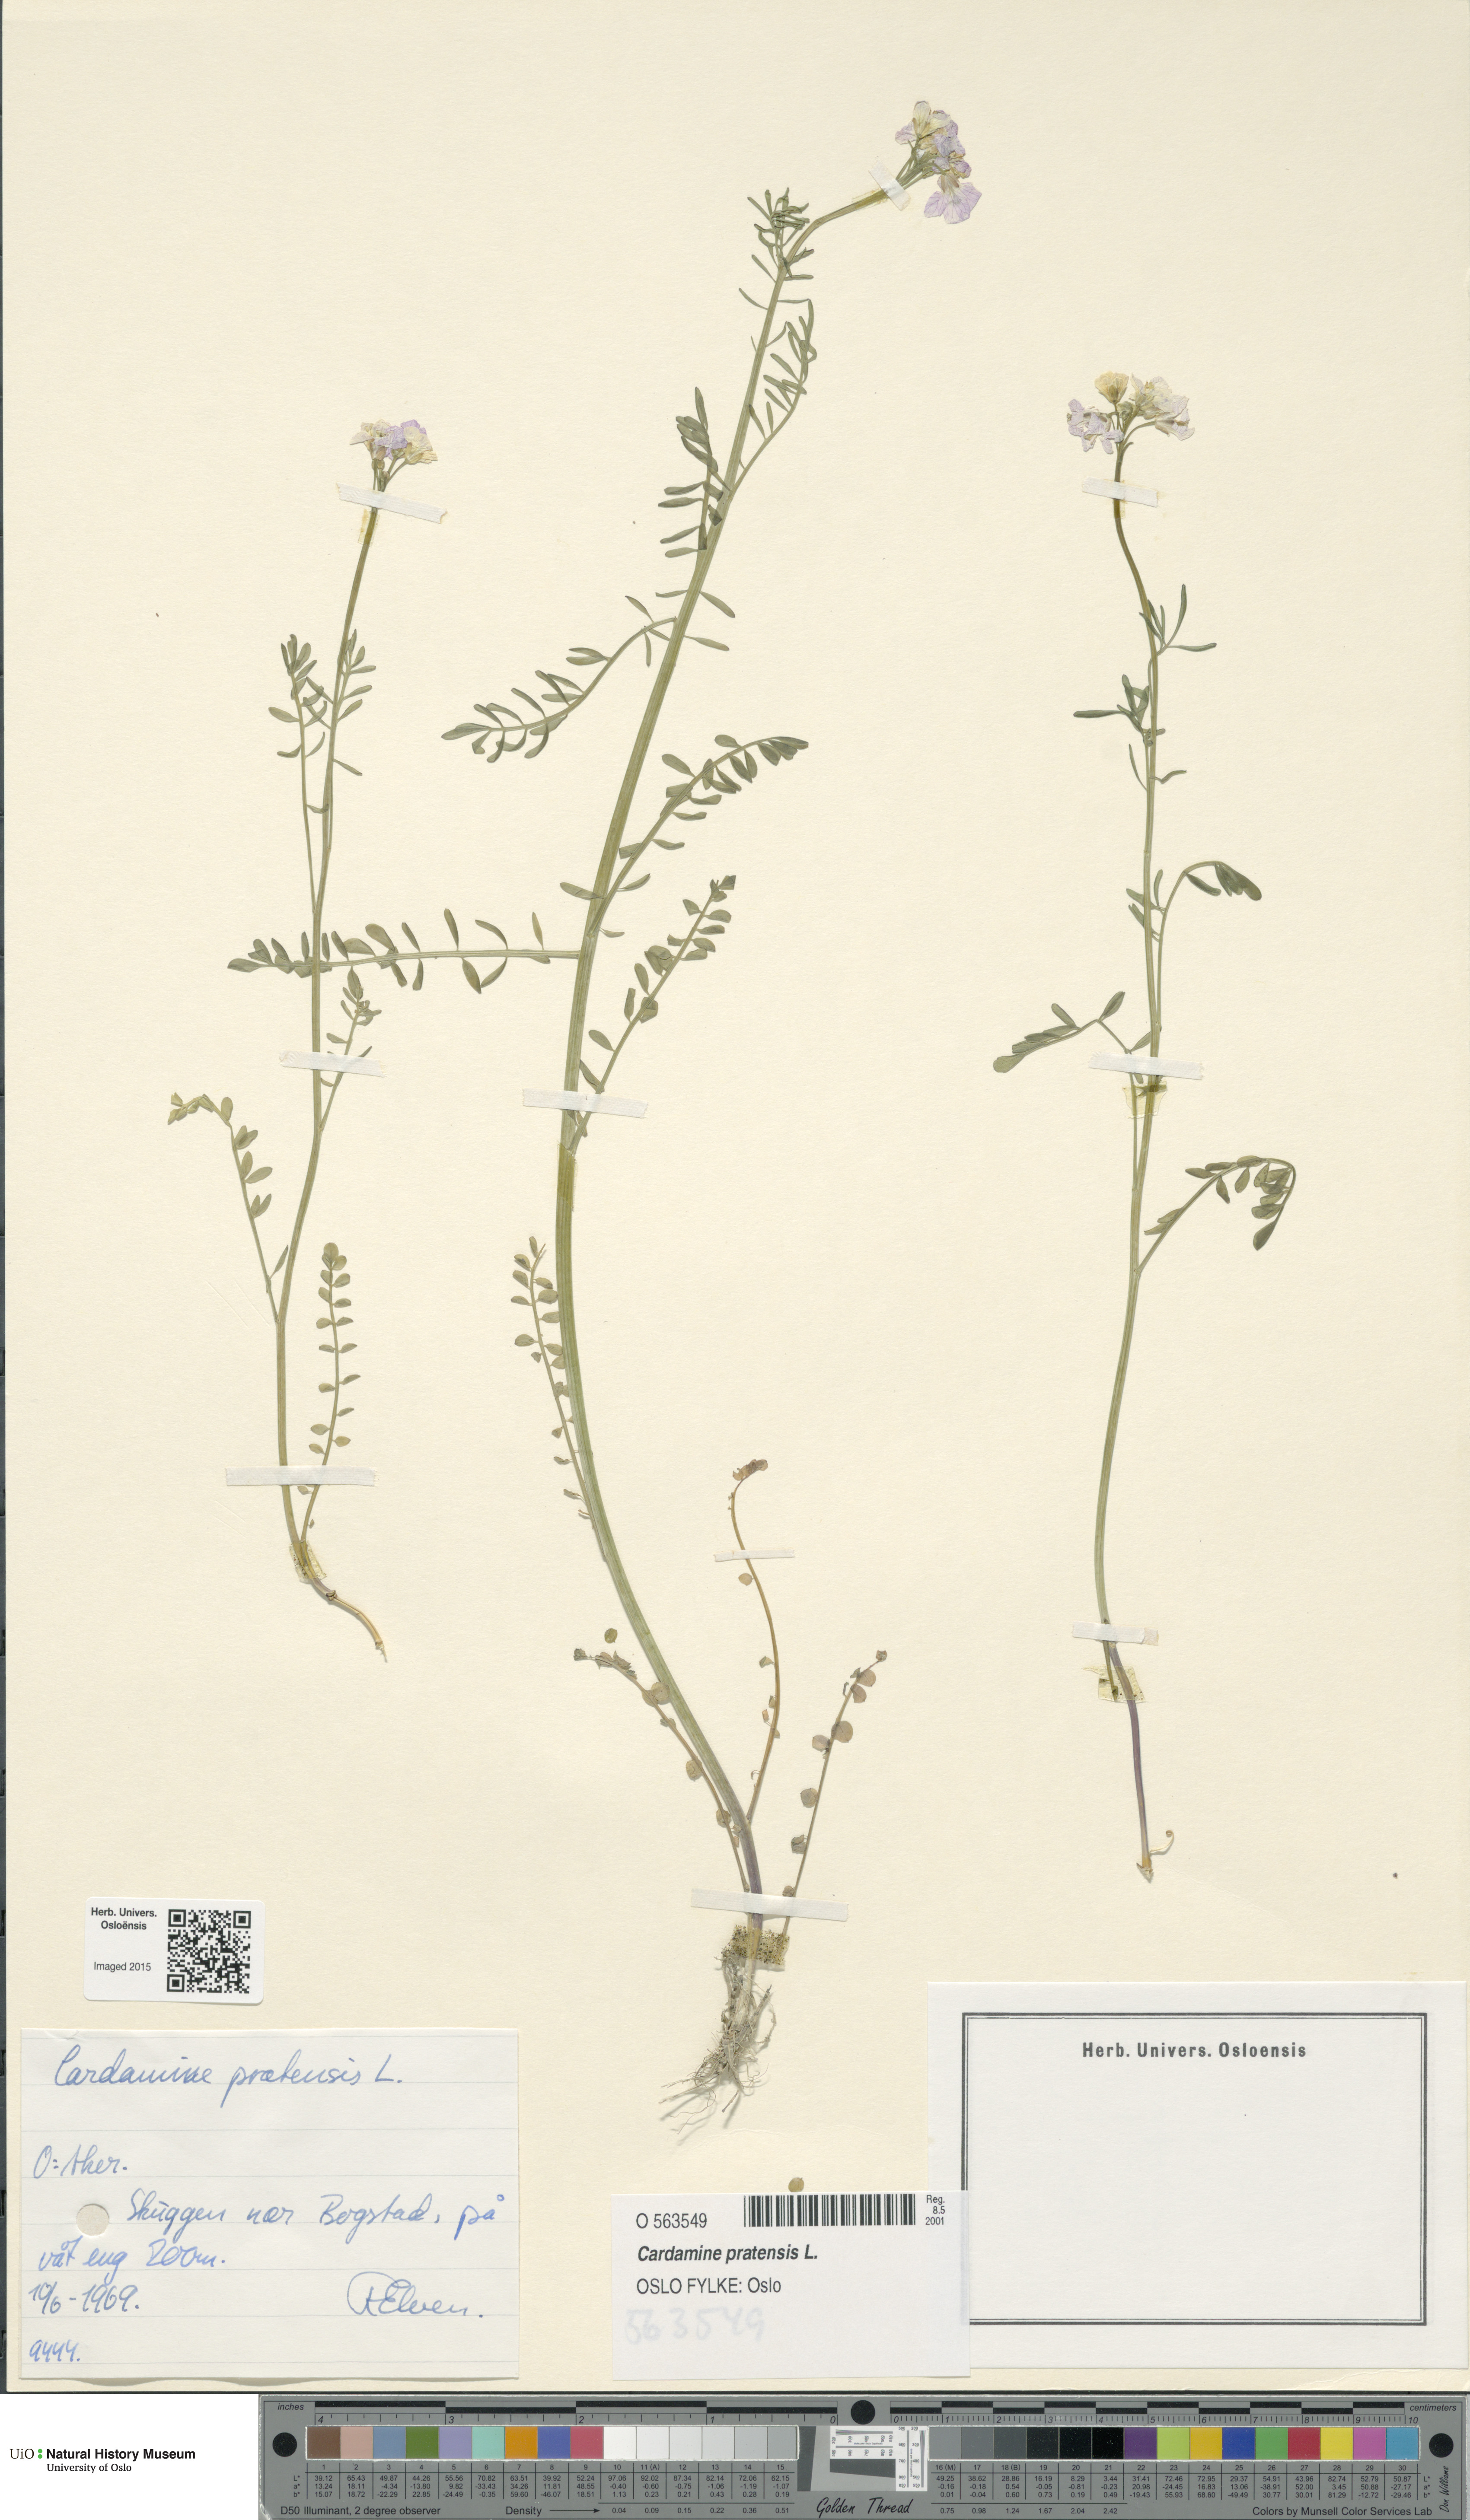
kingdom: Plantae
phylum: Tracheophyta
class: Magnoliopsida
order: Brassicales
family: Brassicaceae
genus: Cardamine
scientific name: Cardamine pratensis
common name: Cuckoo flower
